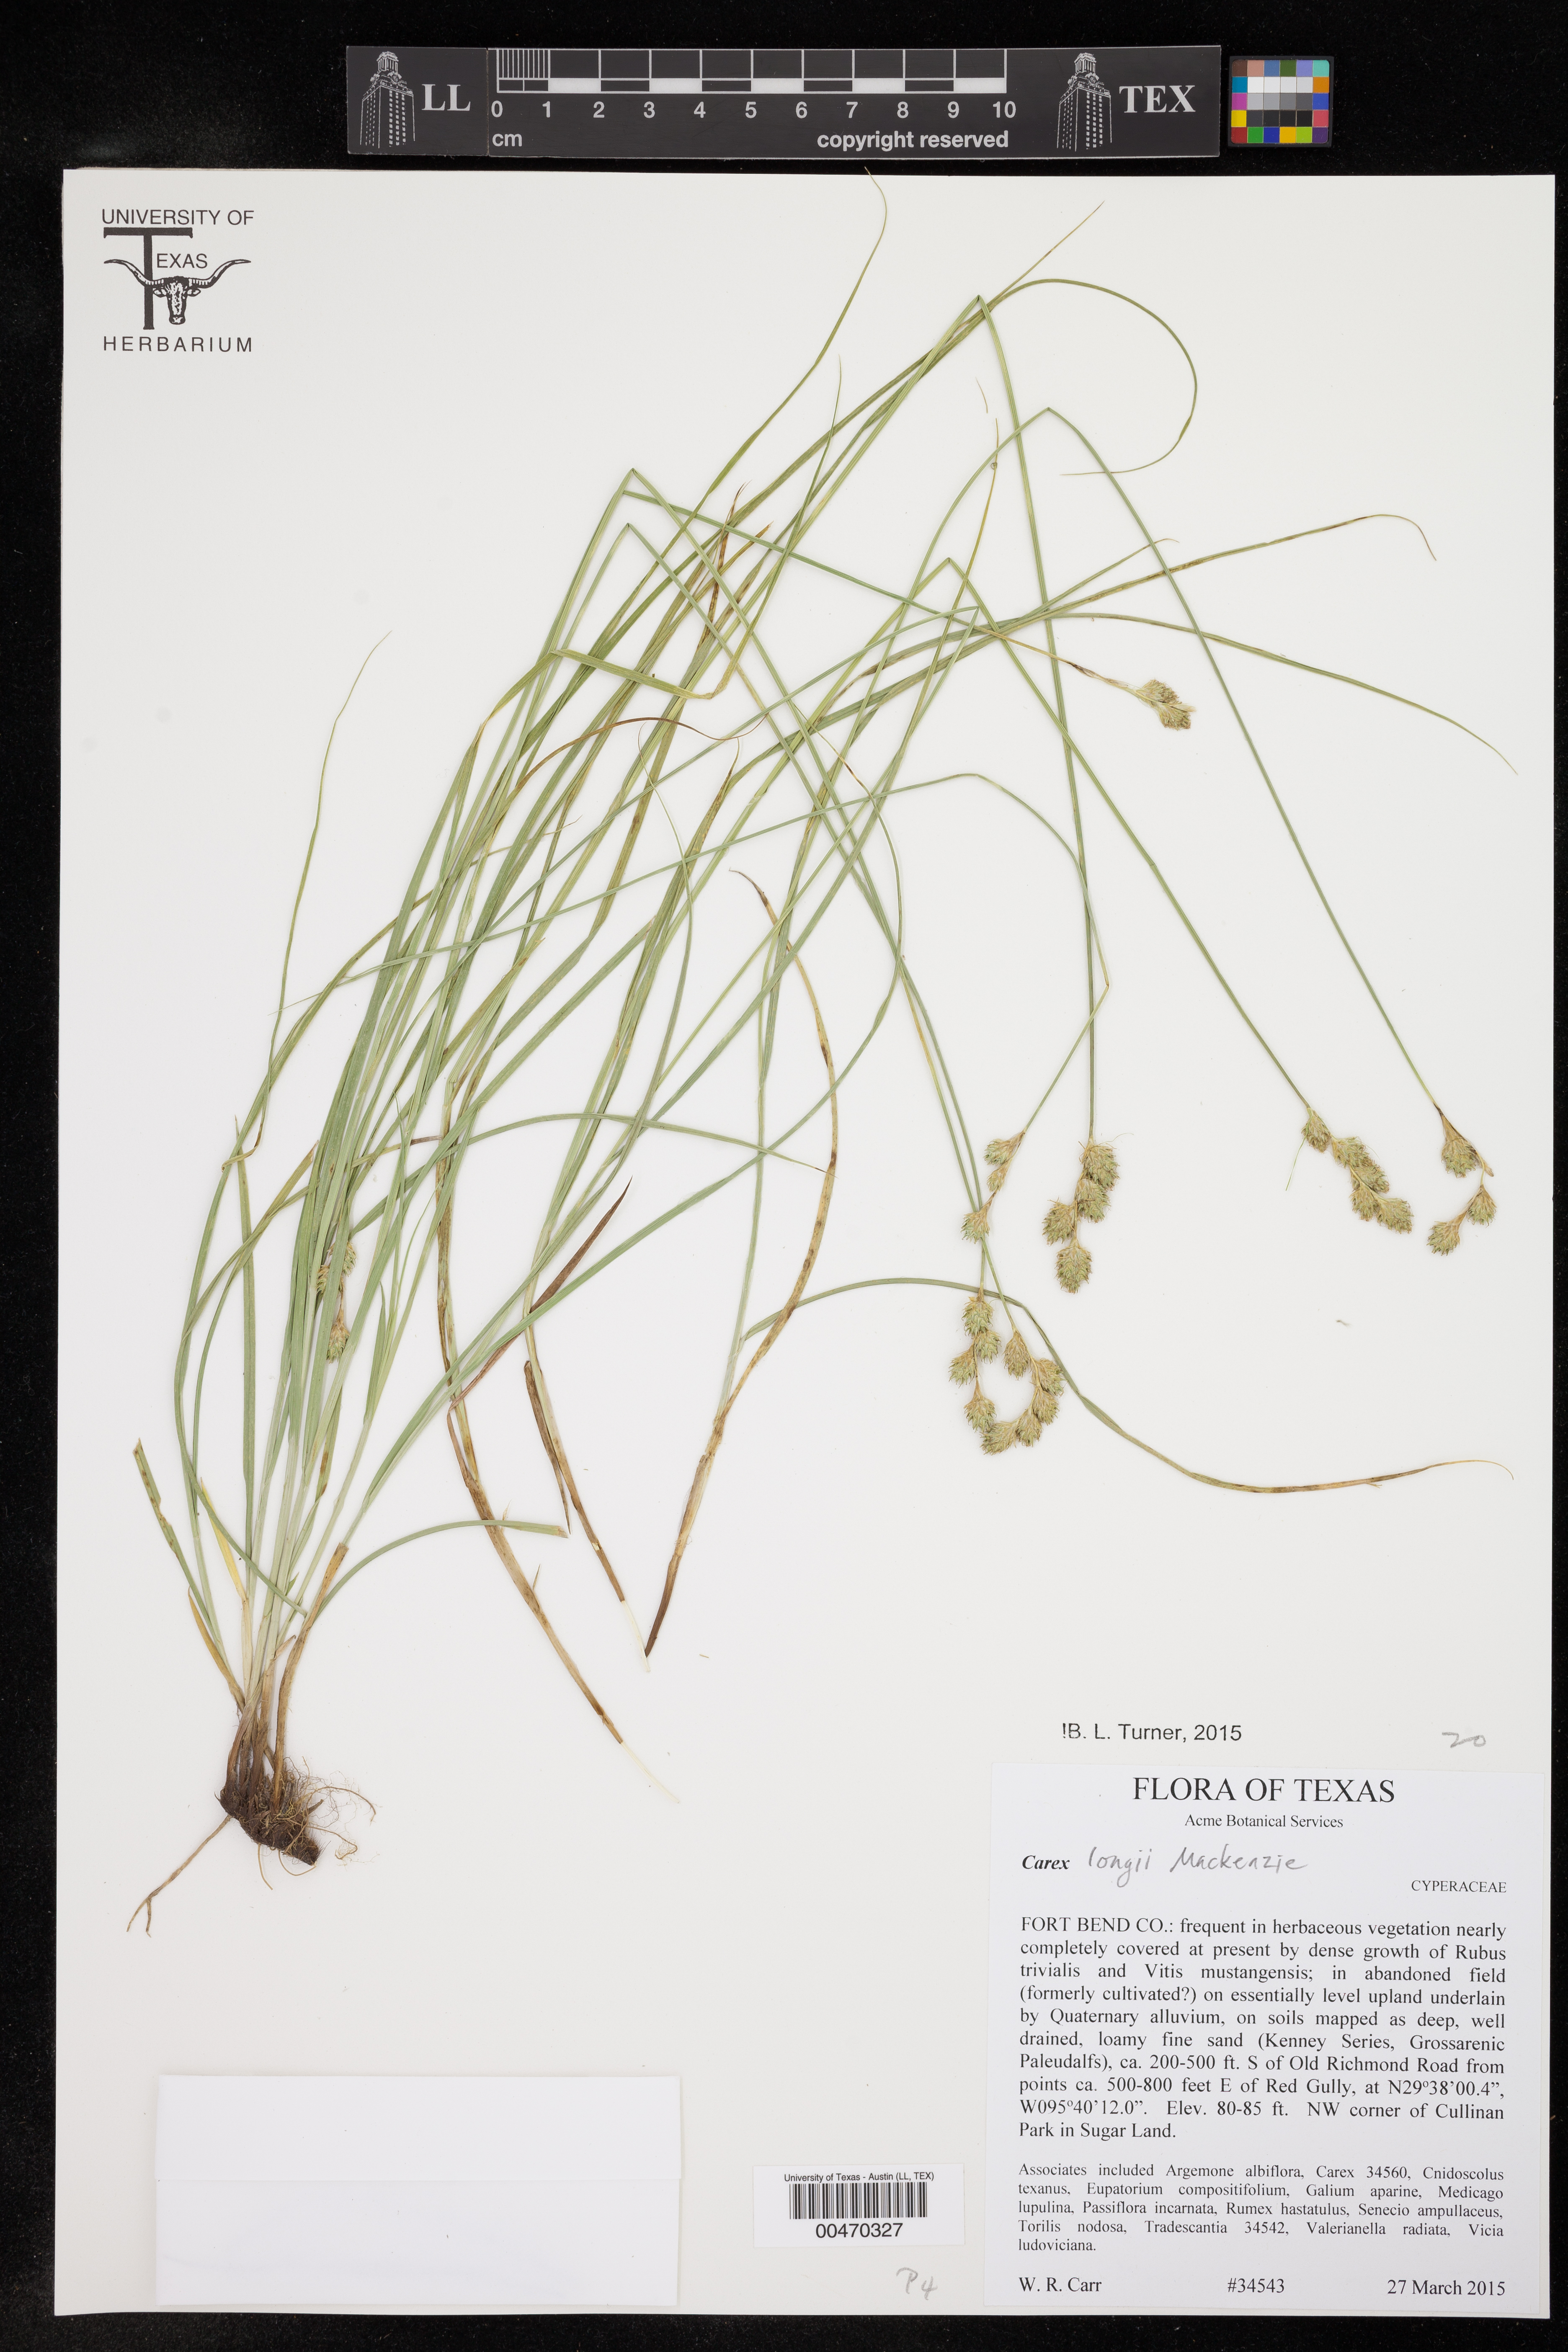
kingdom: Plantae
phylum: Tracheophyta
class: Liliopsida
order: Poales
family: Cyperaceae
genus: Carex
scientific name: Carex longii
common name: Long's sedge
